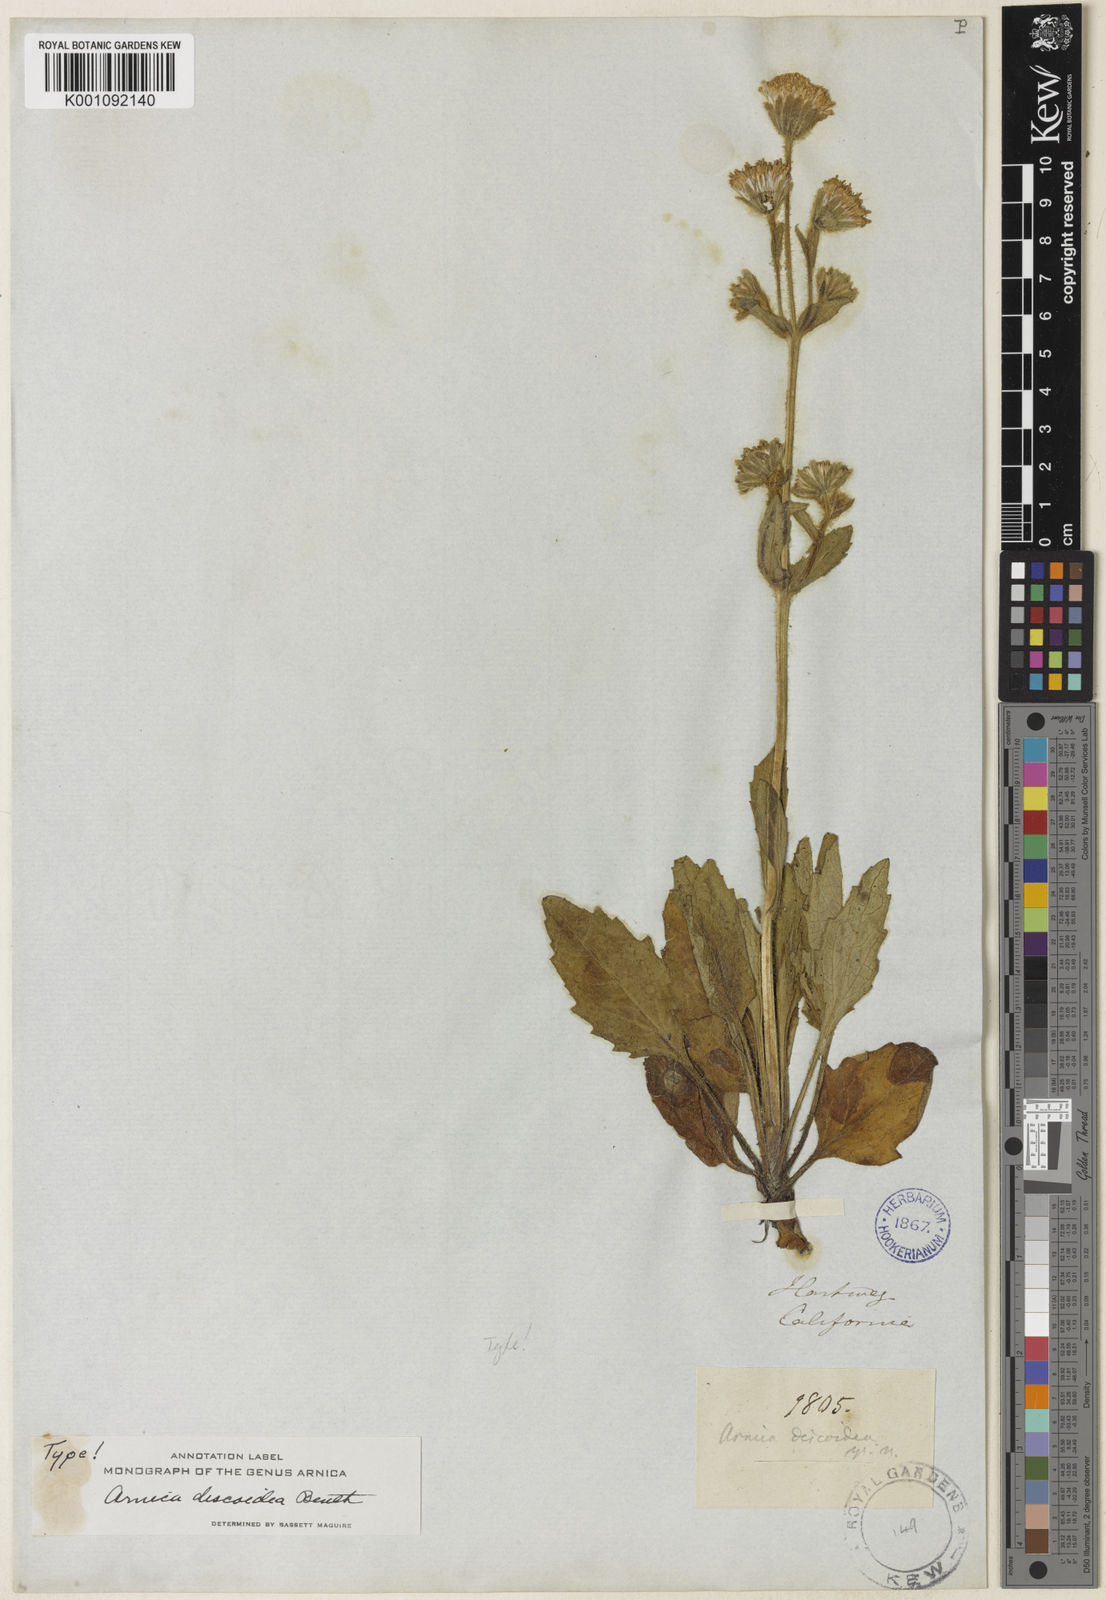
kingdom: Plantae
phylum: Tracheophyta
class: Magnoliopsida
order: Asterales
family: Asteraceae
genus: Arnica
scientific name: Arnica discoidea
